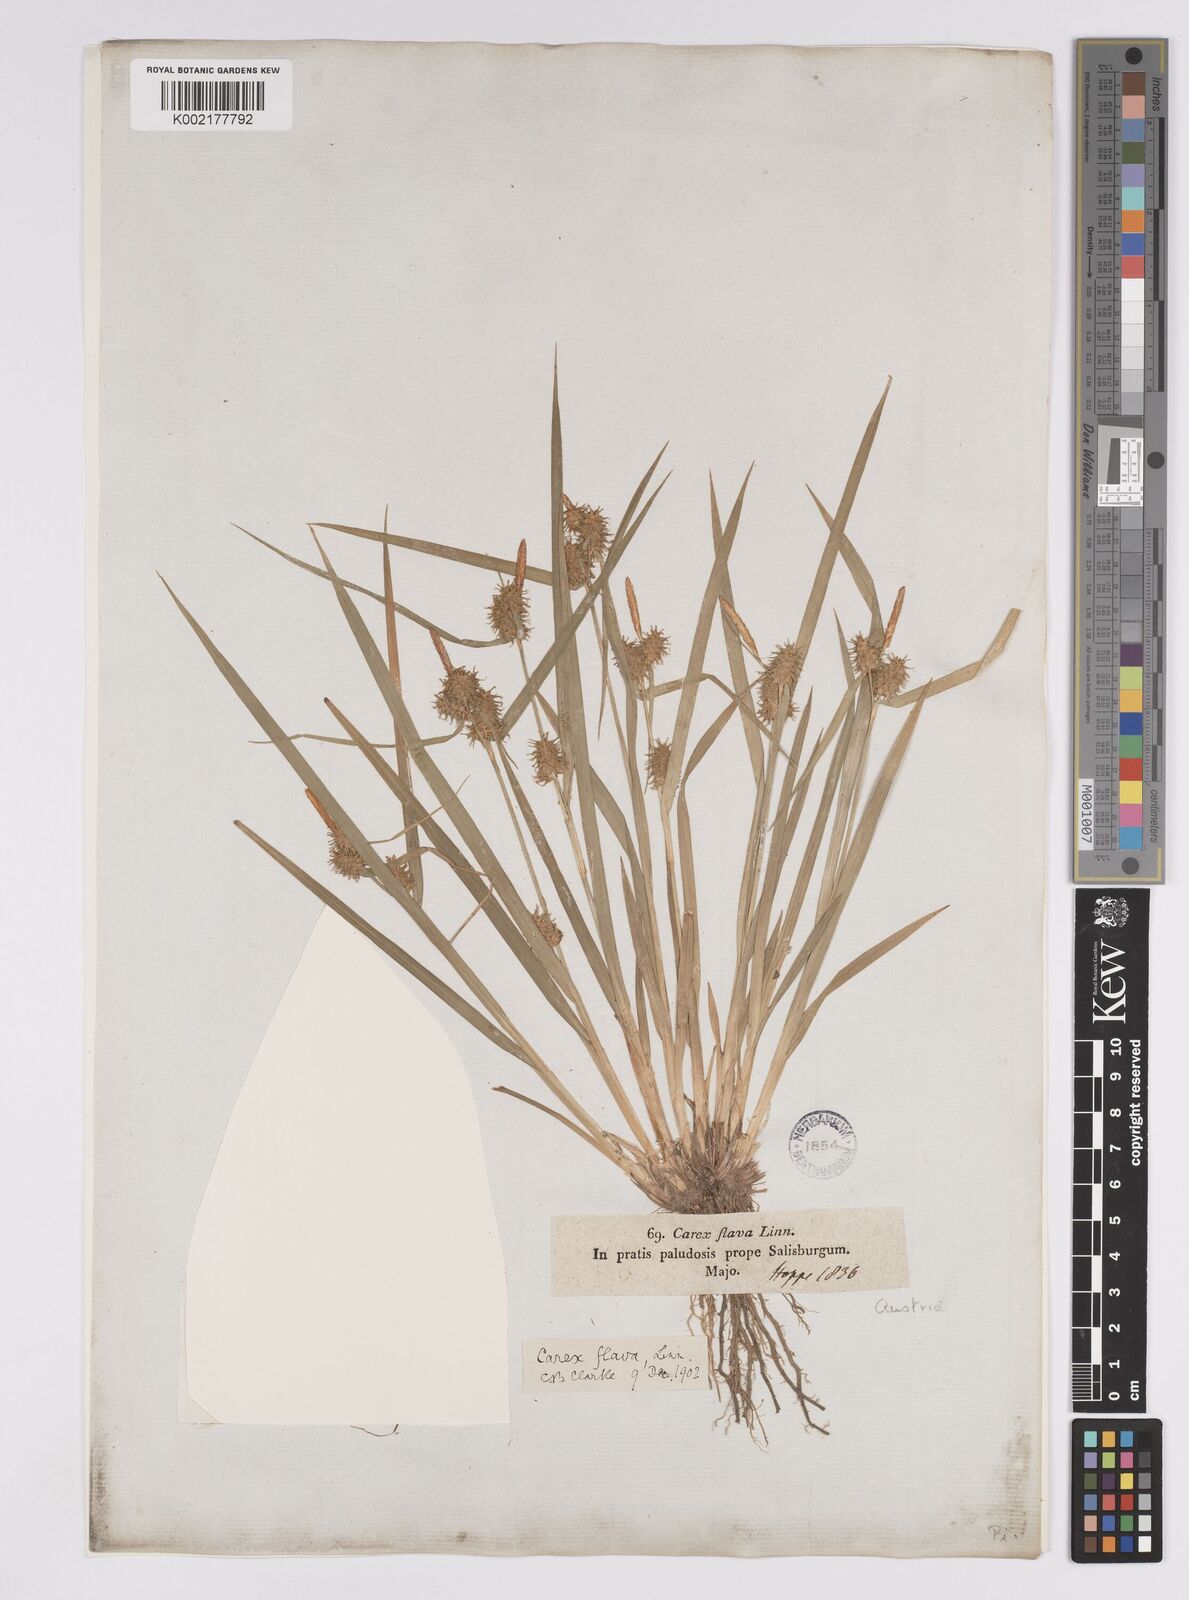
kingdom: Plantae
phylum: Tracheophyta
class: Liliopsida
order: Poales
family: Cyperaceae
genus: Carex
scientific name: Carex flava
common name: Large yellow-sedge
